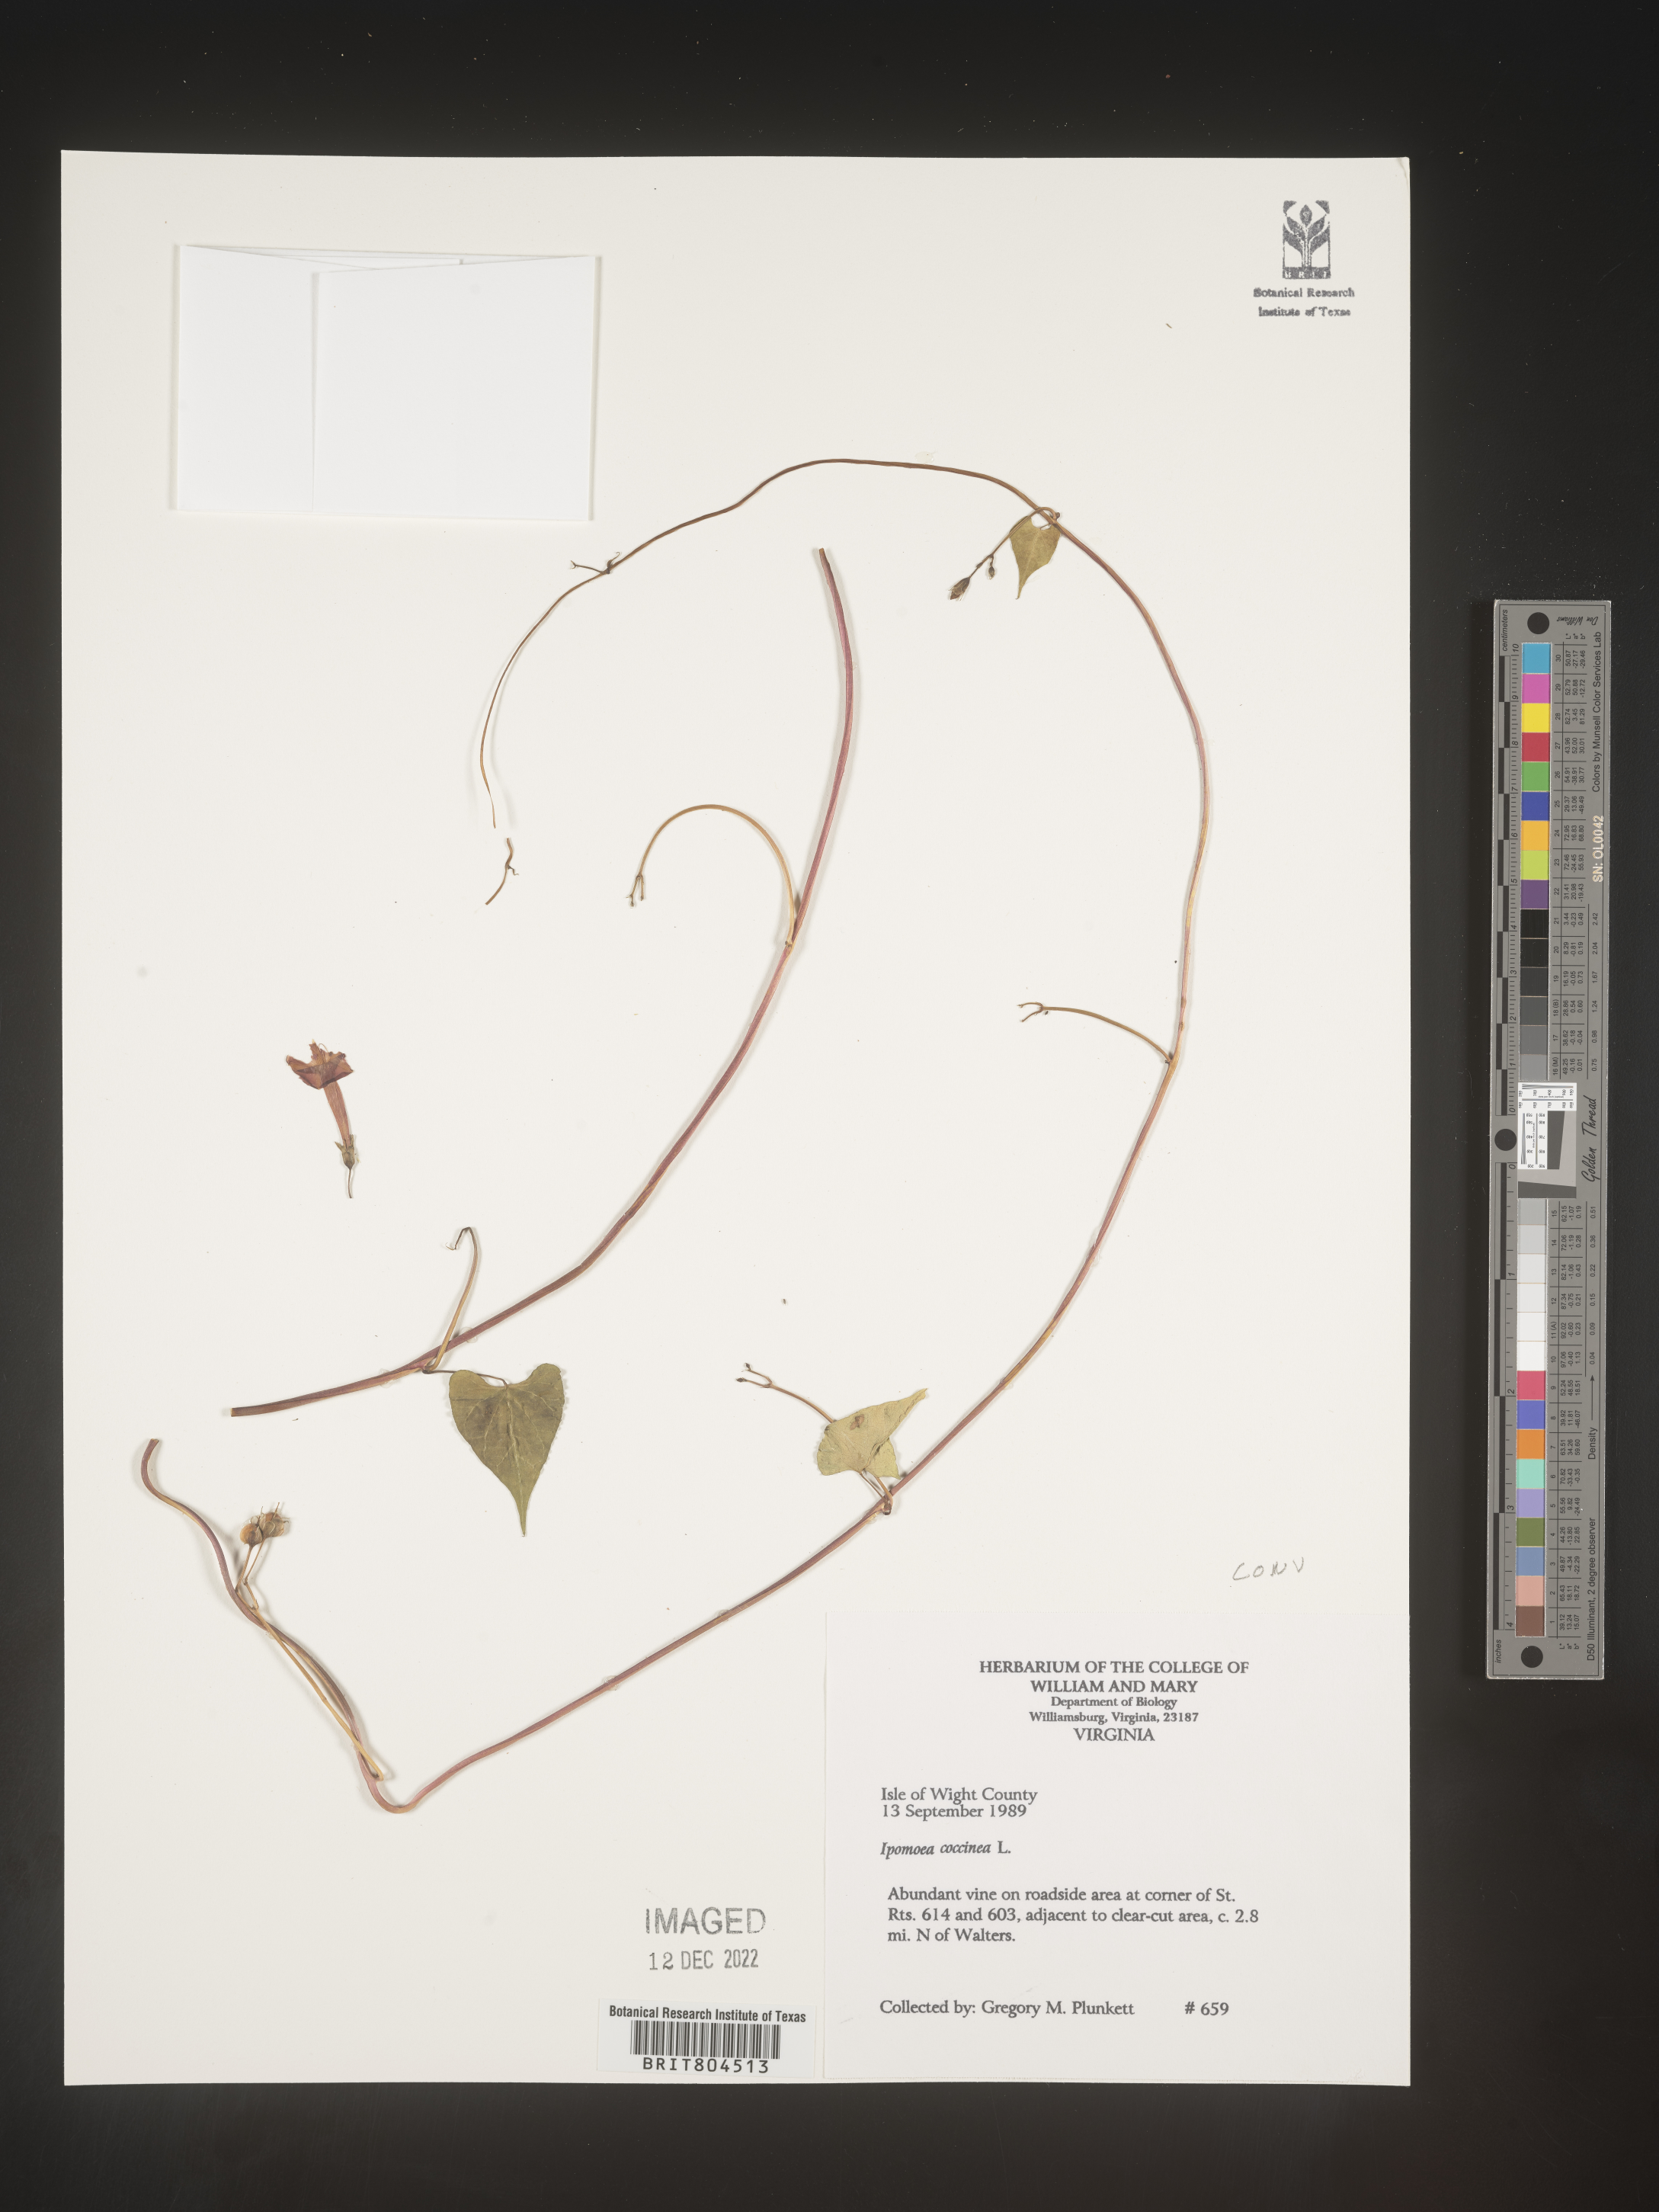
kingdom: Plantae
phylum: Tracheophyta
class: Magnoliopsida
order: Solanales
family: Convolvulaceae
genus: Ipomoea
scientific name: Ipomoea coccinea
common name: Red morning-glory
